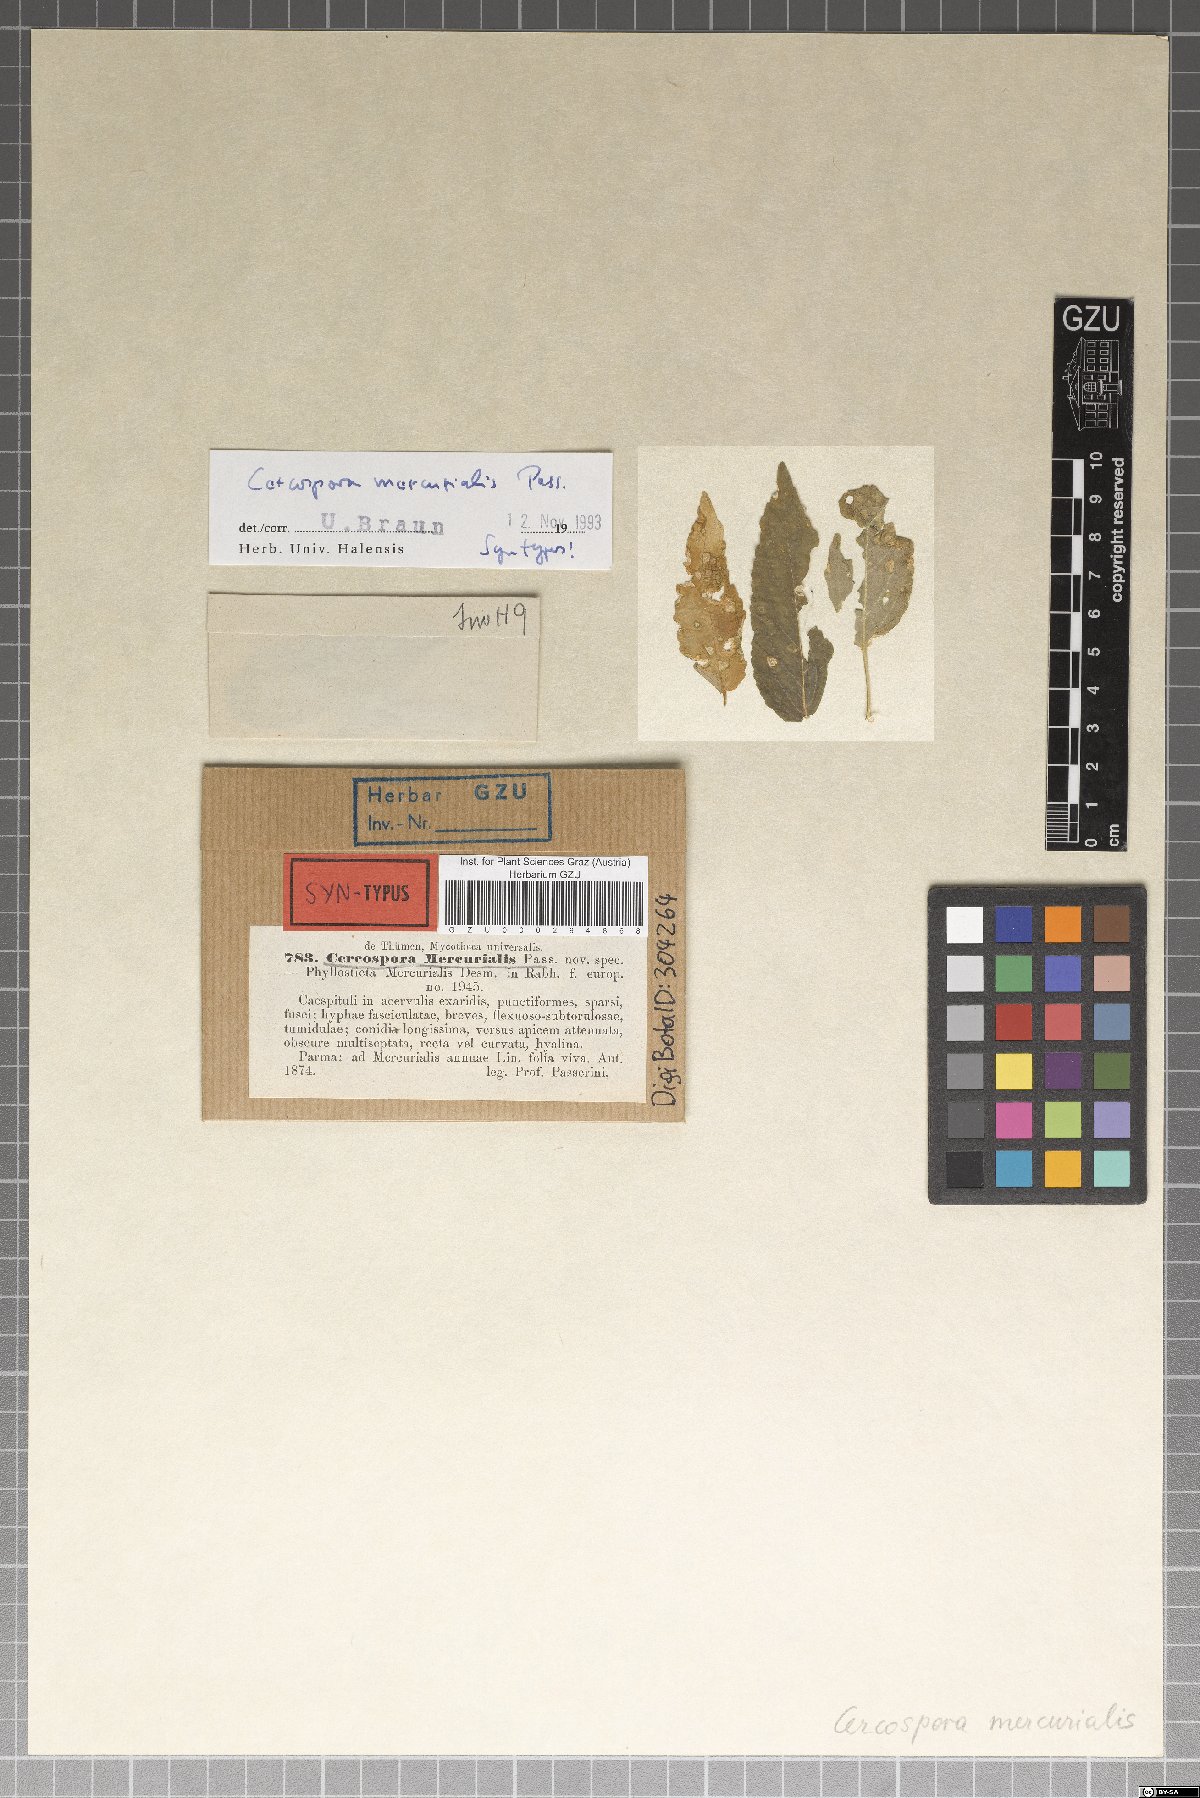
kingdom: Fungi
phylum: Ascomycota
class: Dothideomycetes
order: Mycosphaerellales
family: Mycosphaerellaceae
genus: Cercospora
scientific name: Cercospora mercurialis
